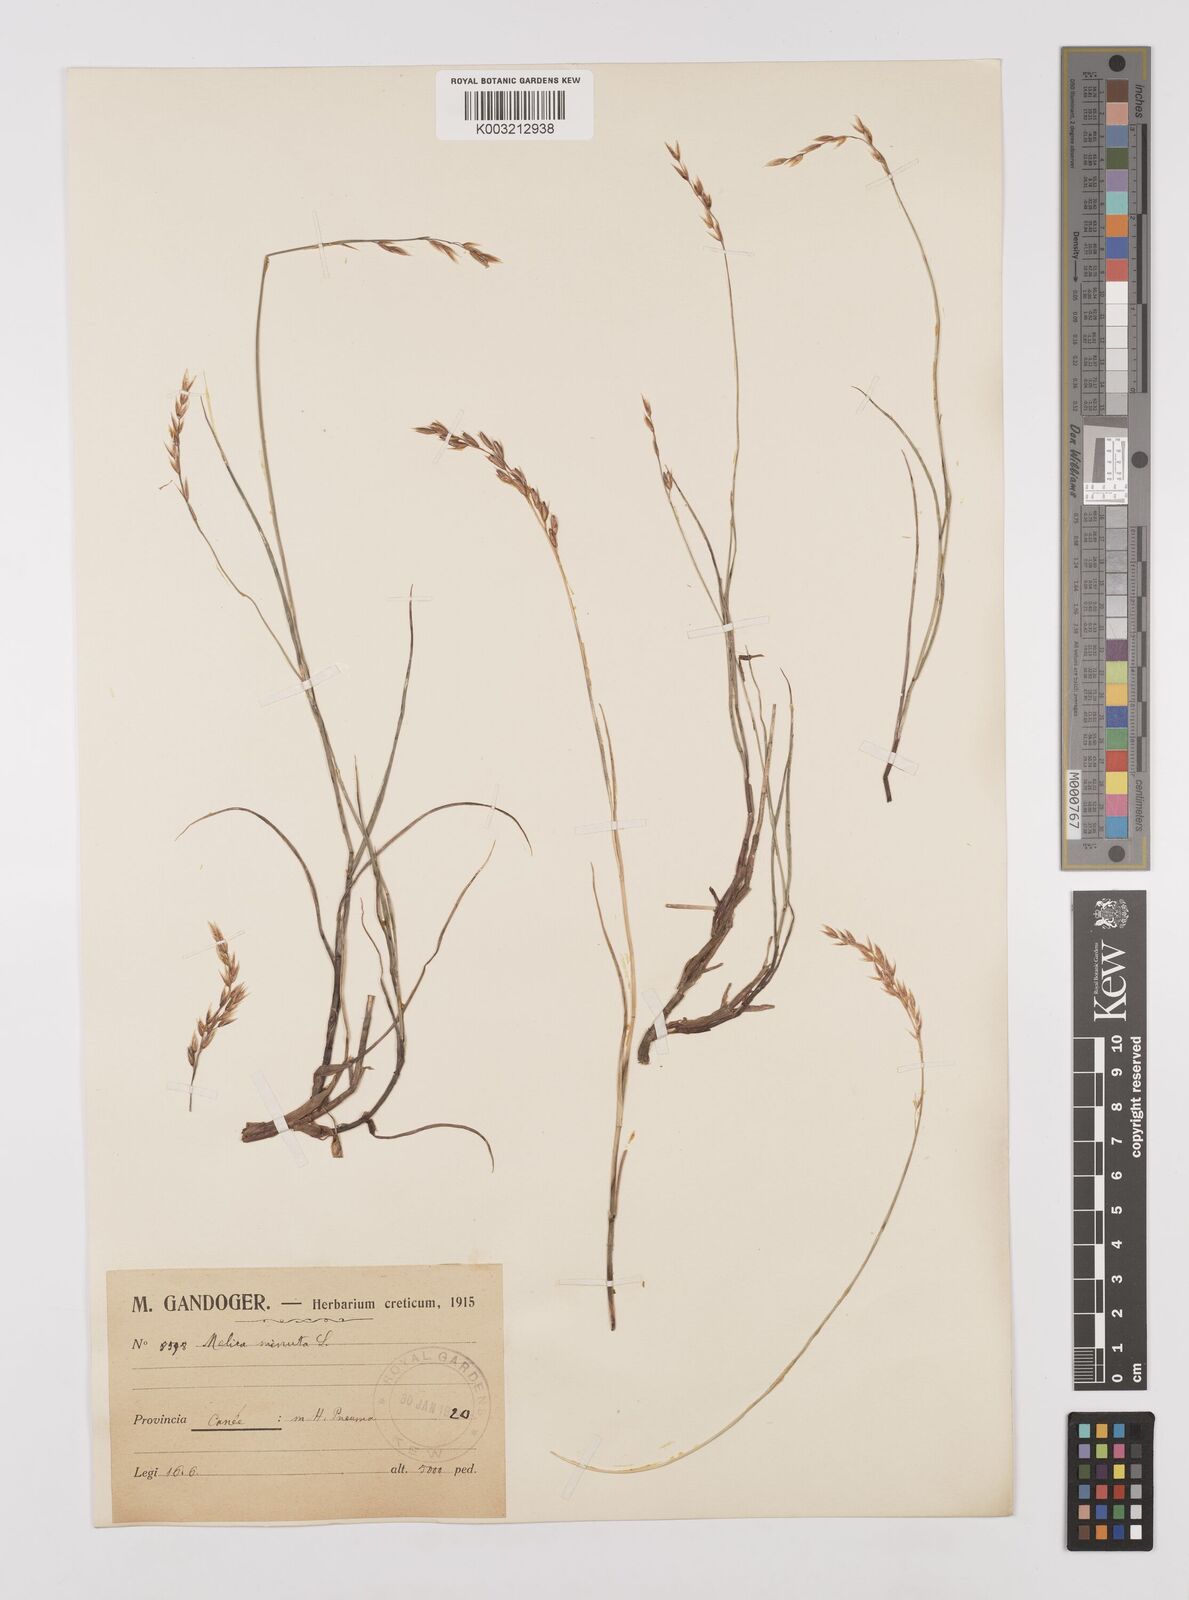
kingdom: Plantae
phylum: Tracheophyta
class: Liliopsida
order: Poales
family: Poaceae
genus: Melica
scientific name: Melica minuta
